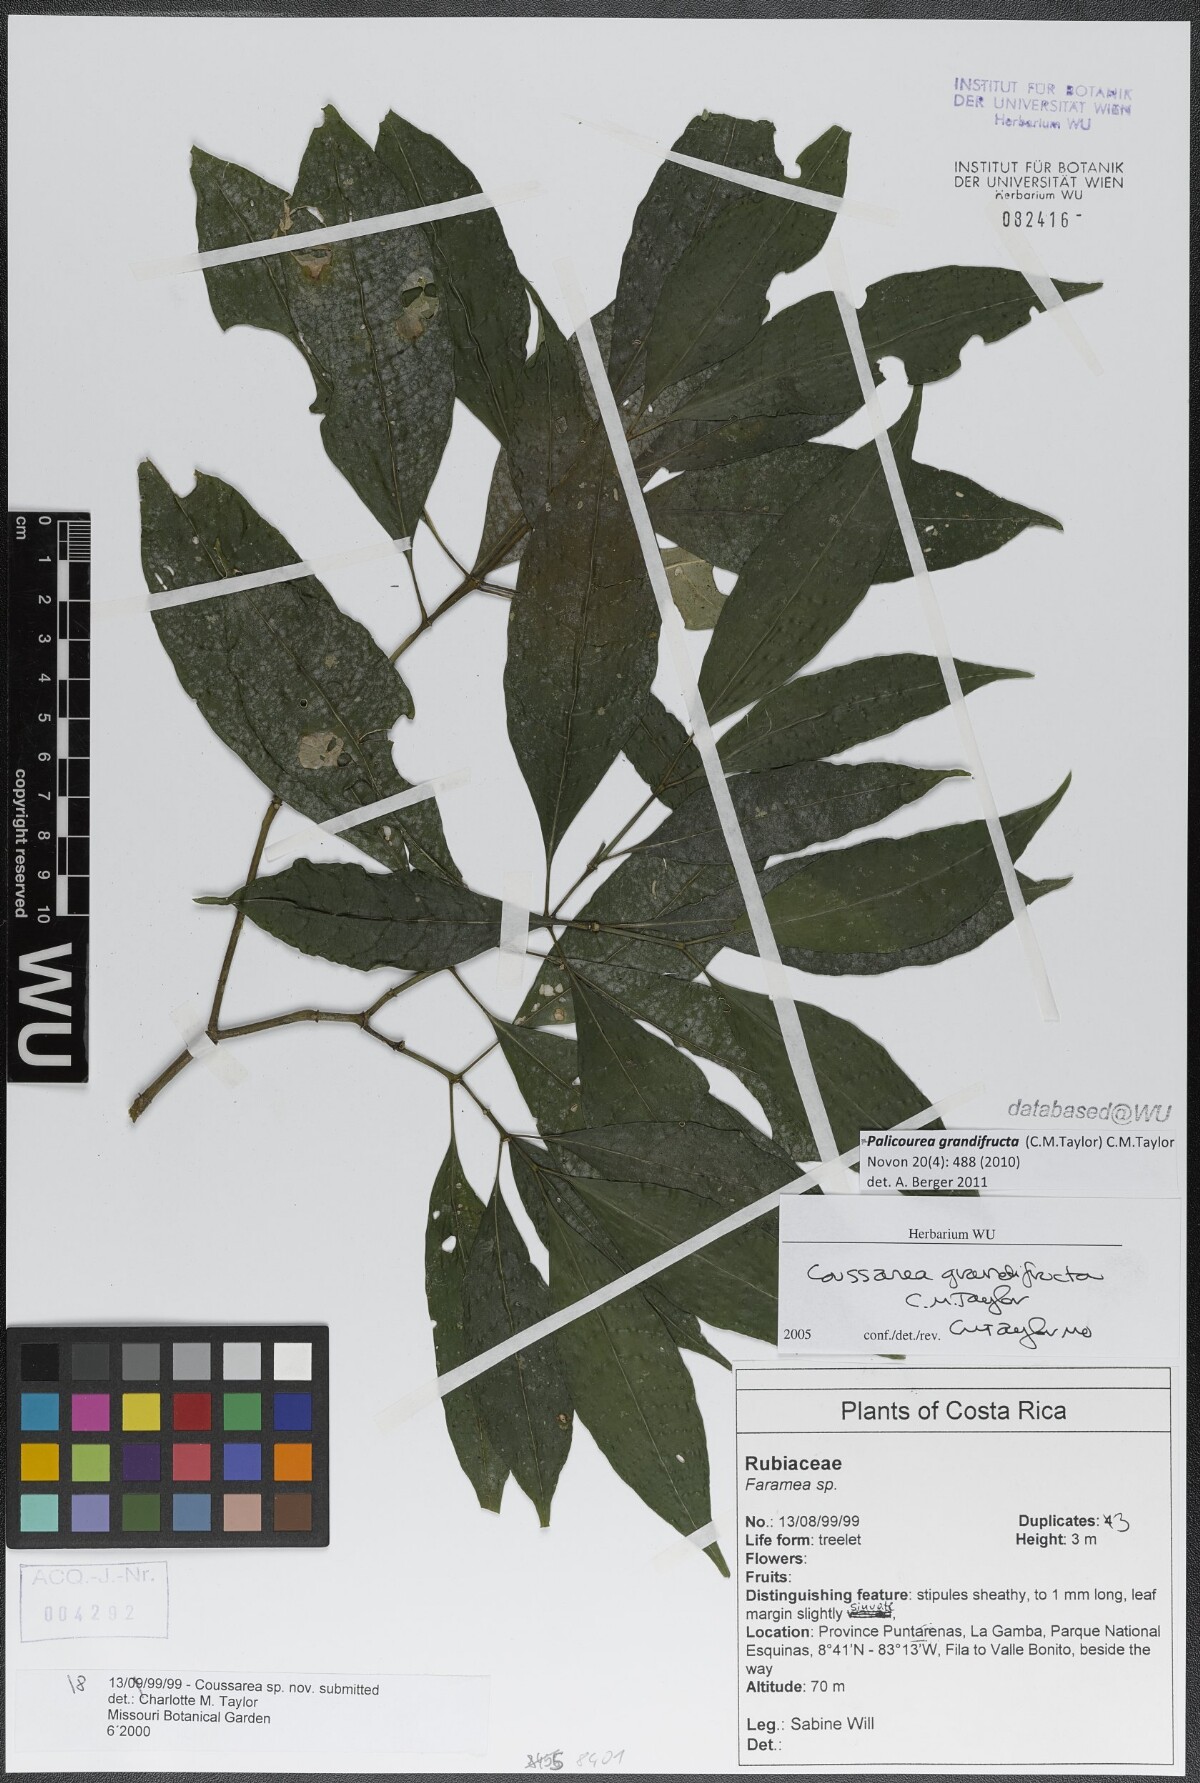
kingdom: Plantae
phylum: Tracheophyta
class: Magnoliopsida
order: Gentianales
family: Rubiaceae
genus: Palicourea
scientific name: Palicourea grandifructa
